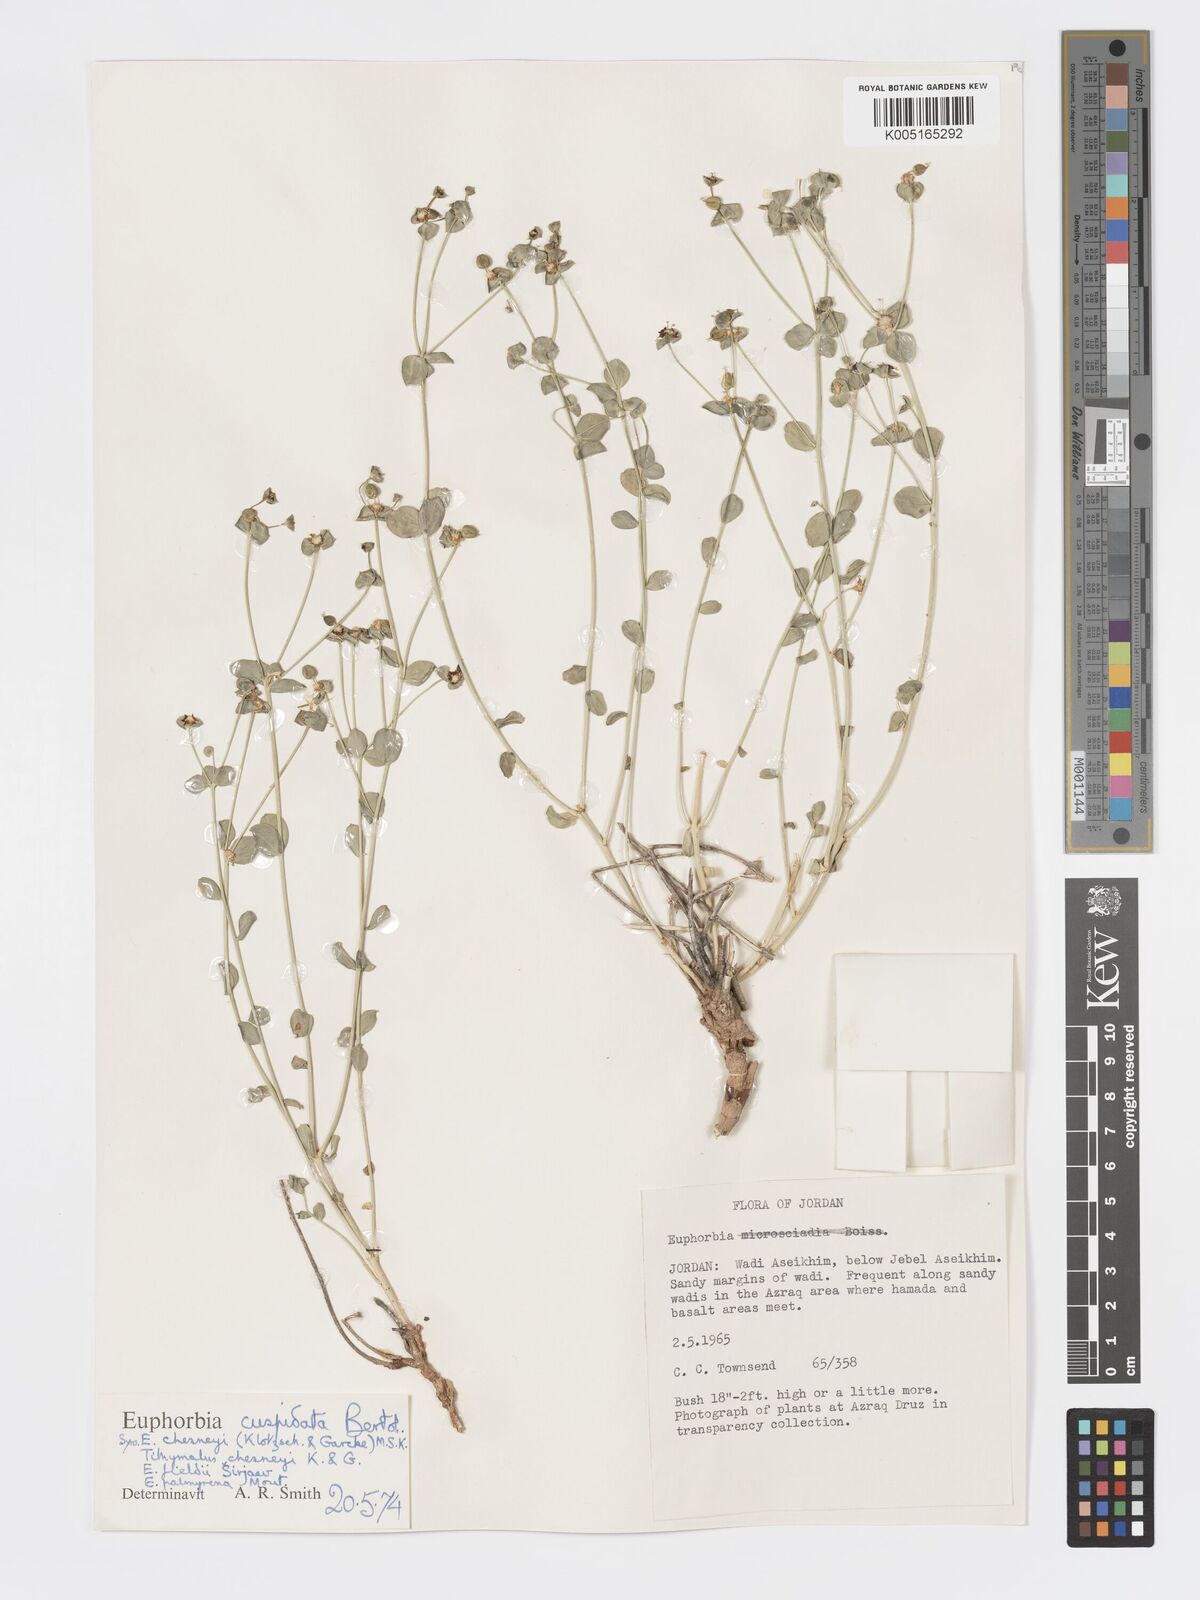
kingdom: Plantae
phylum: Tracheophyta
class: Magnoliopsida
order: Malpighiales
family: Euphorbiaceae
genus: Euphorbia
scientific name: Euphorbia
